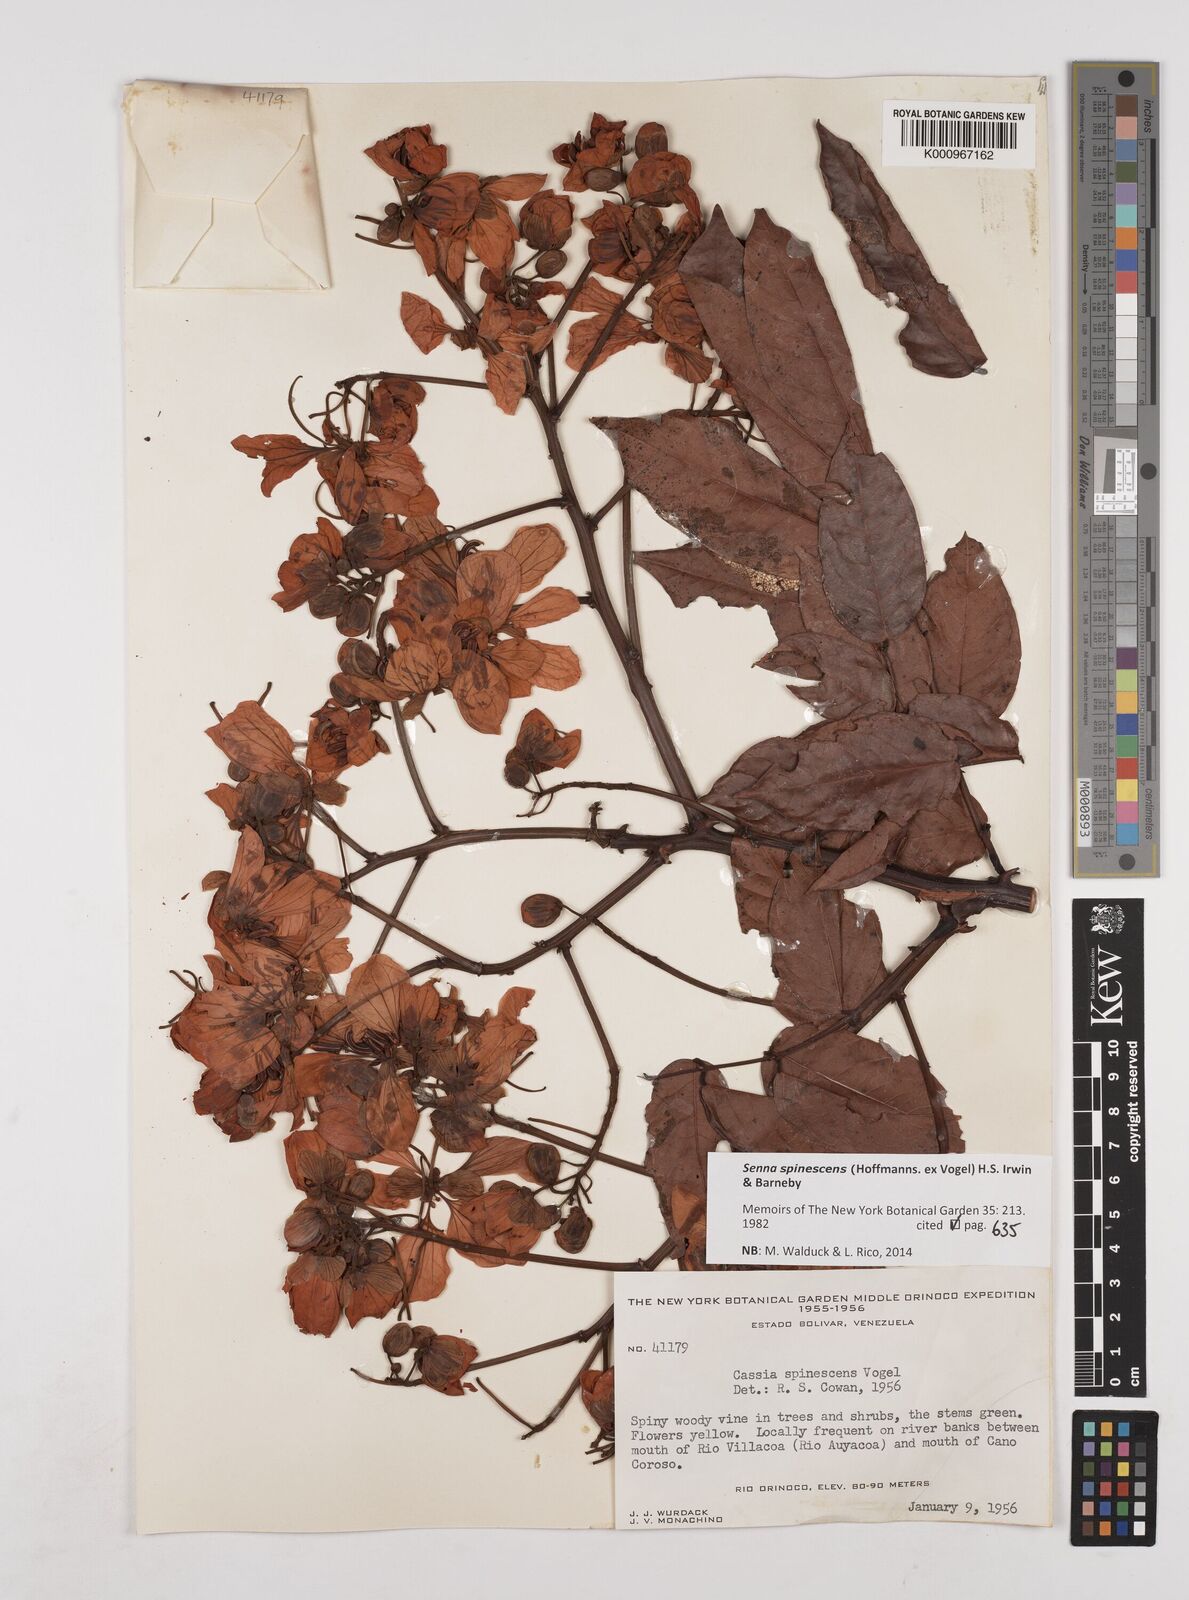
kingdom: Plantae
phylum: Tracheophyta
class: Magnoliopsida
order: Fabales
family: Fabaceae
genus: Senna
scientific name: Senna spinescens
